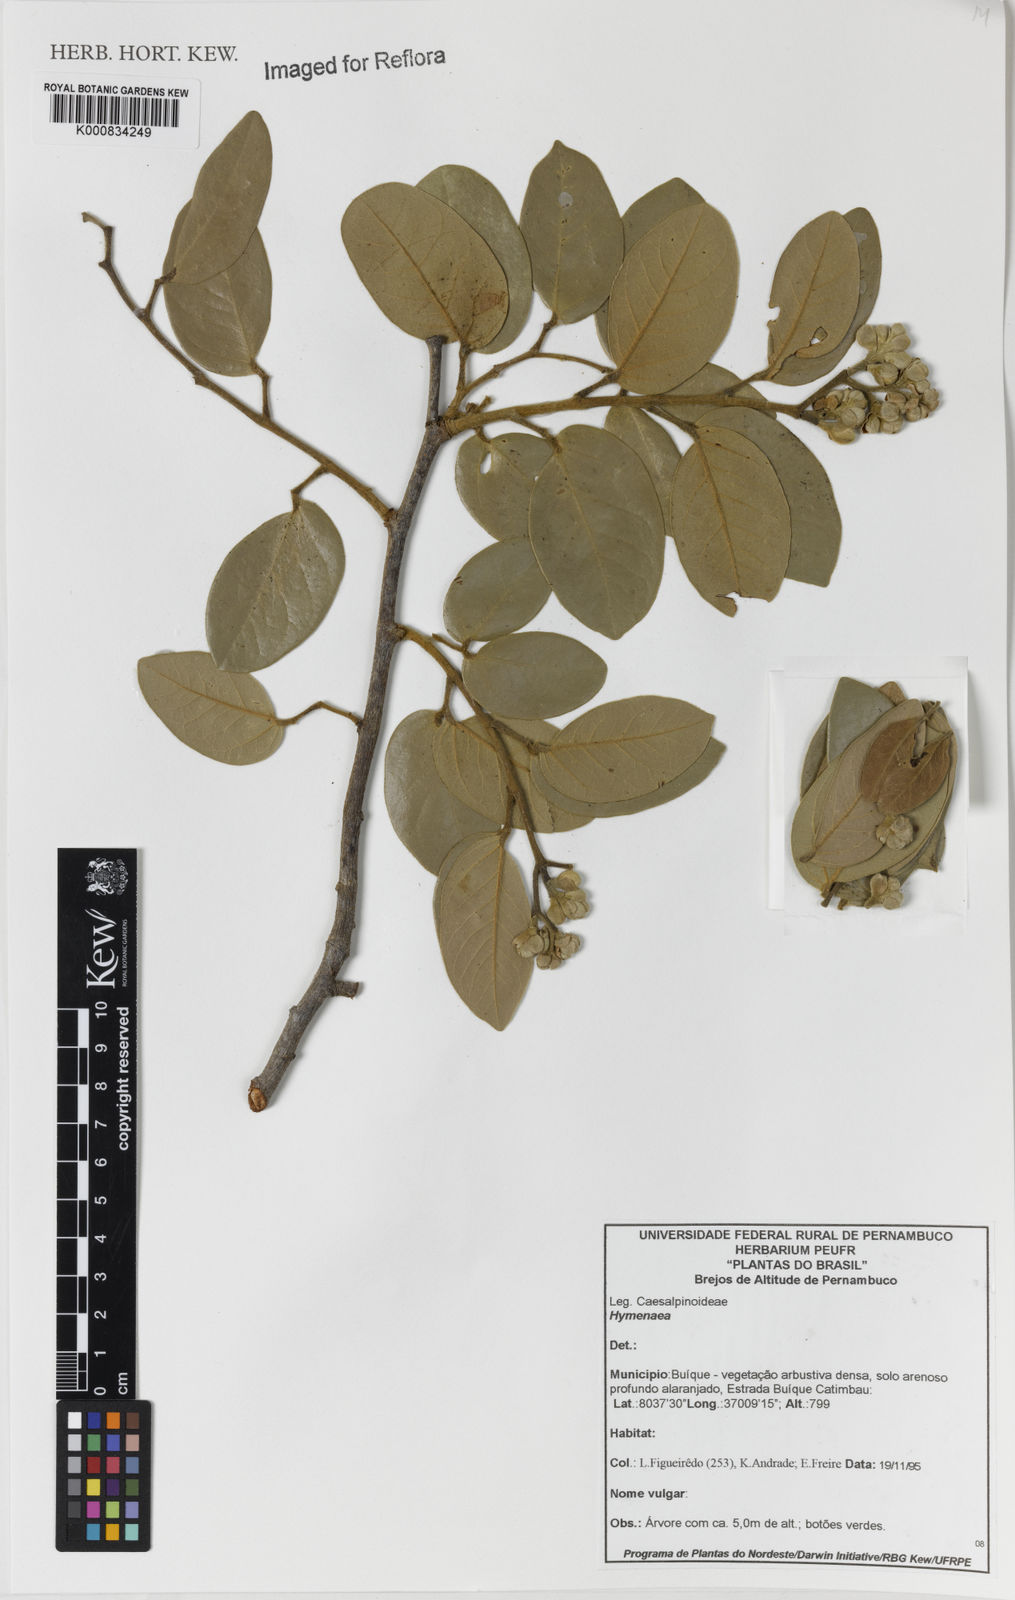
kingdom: Plantae
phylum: Tracheophyta
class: Magnoliopsida
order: Fabales
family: Fabaceae
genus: Hymenaea
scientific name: Hymenaea
